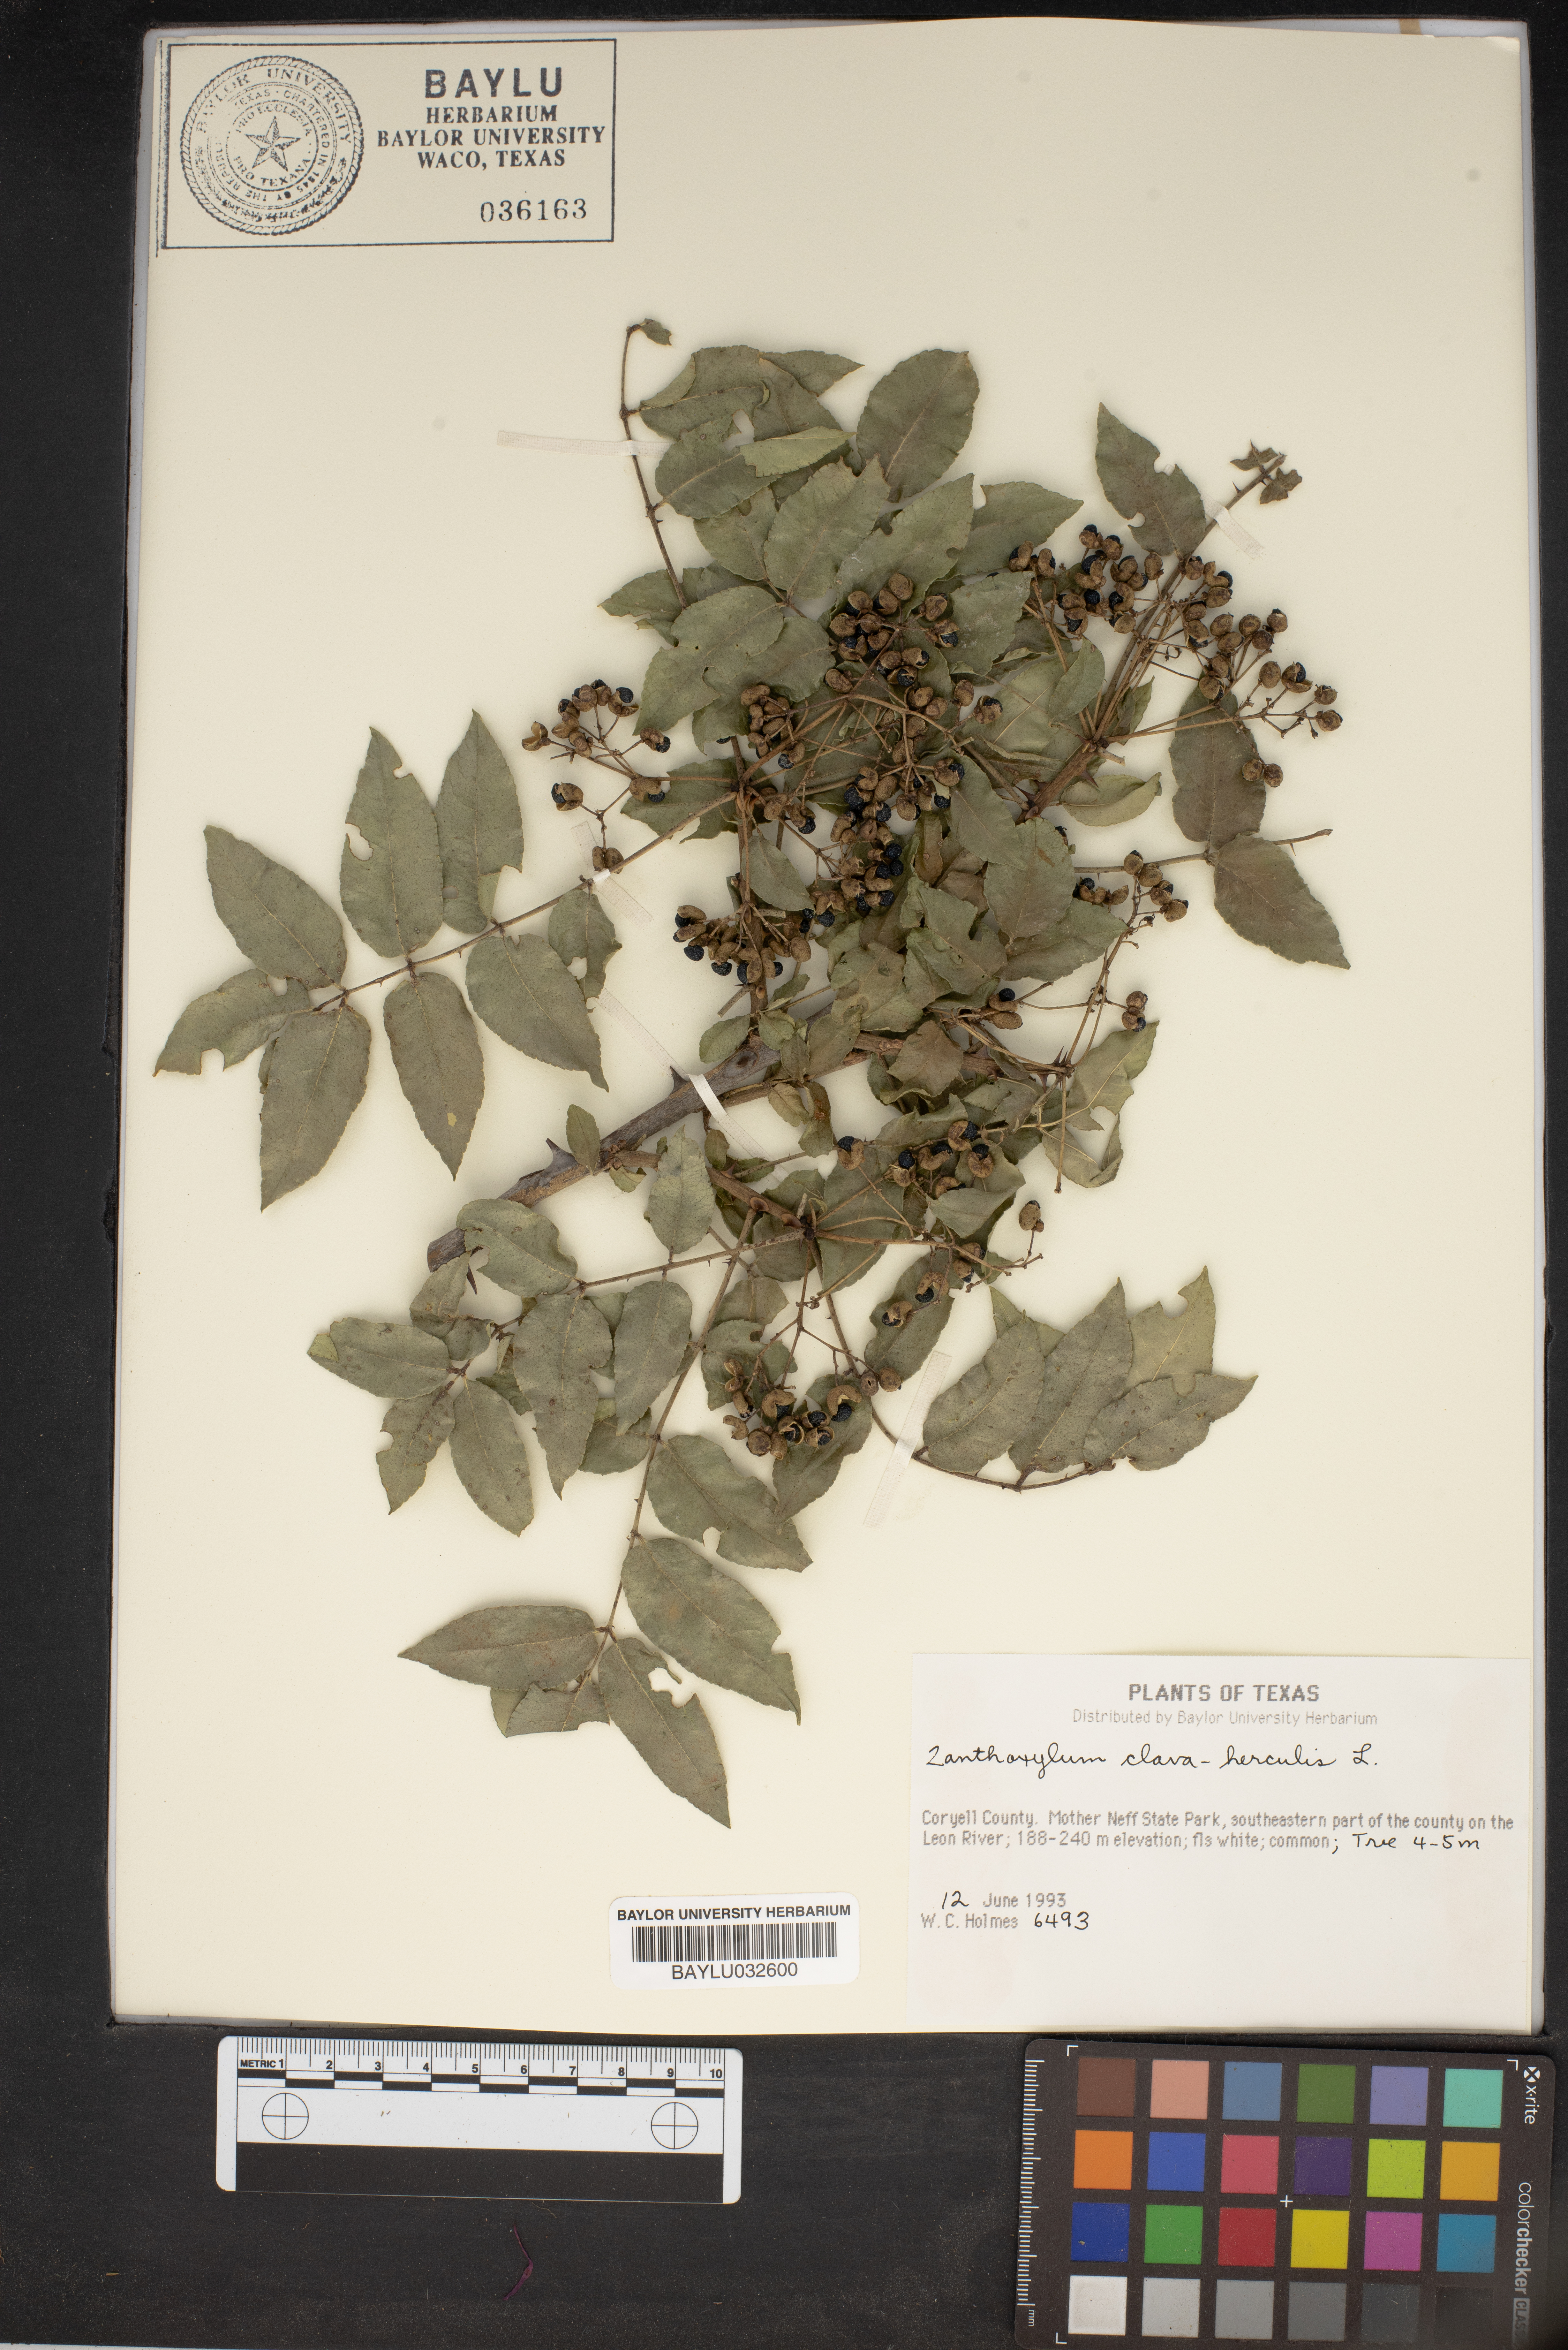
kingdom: Plantae
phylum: Tracheophyta
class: Magnoliopsida
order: Sapindales
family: Rutaceae
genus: Zanthoxylum
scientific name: Zanthoxylum avicennae
